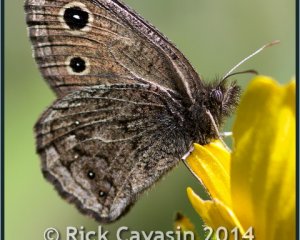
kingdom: Animalia
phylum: Arthropoda
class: Insecta
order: Lepidoptera
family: Nymphalidae
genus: Cercyonis
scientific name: Cercyonis oetus
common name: Small Wood-Nymph
